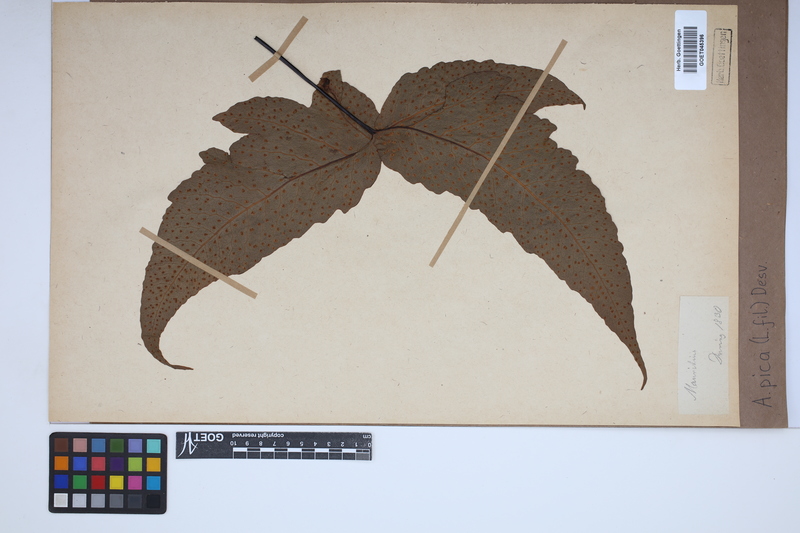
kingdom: Plantae
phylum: Tracheophyta
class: Polypodiopsida
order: Polypodiales
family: Tectariaceae
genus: Tectaria
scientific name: Tectaria pica
